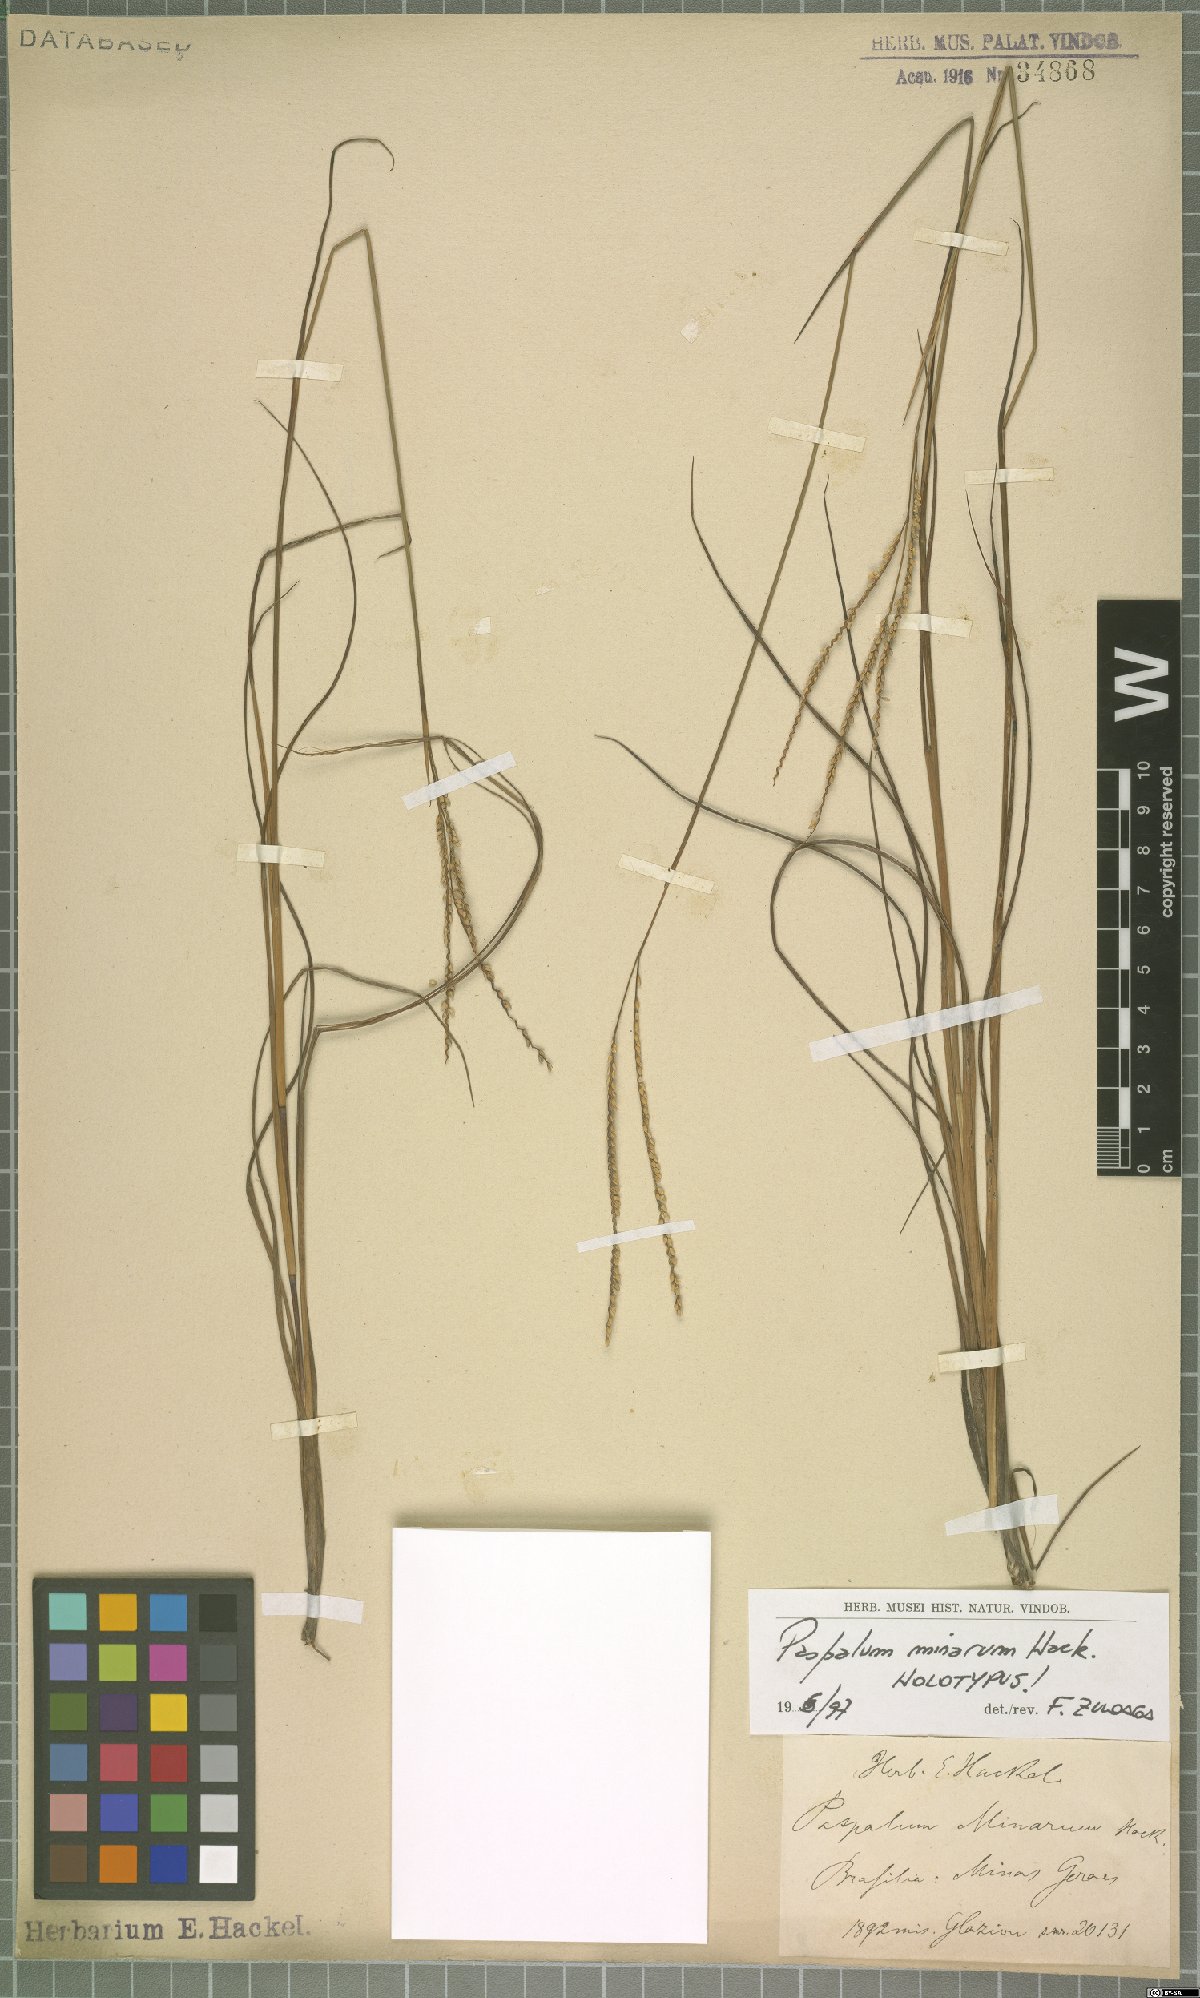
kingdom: Plantae
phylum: Tracheophyta
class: Liliopsida
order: Poales
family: Poaceae
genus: Paspalum
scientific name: Paspalum minarum
